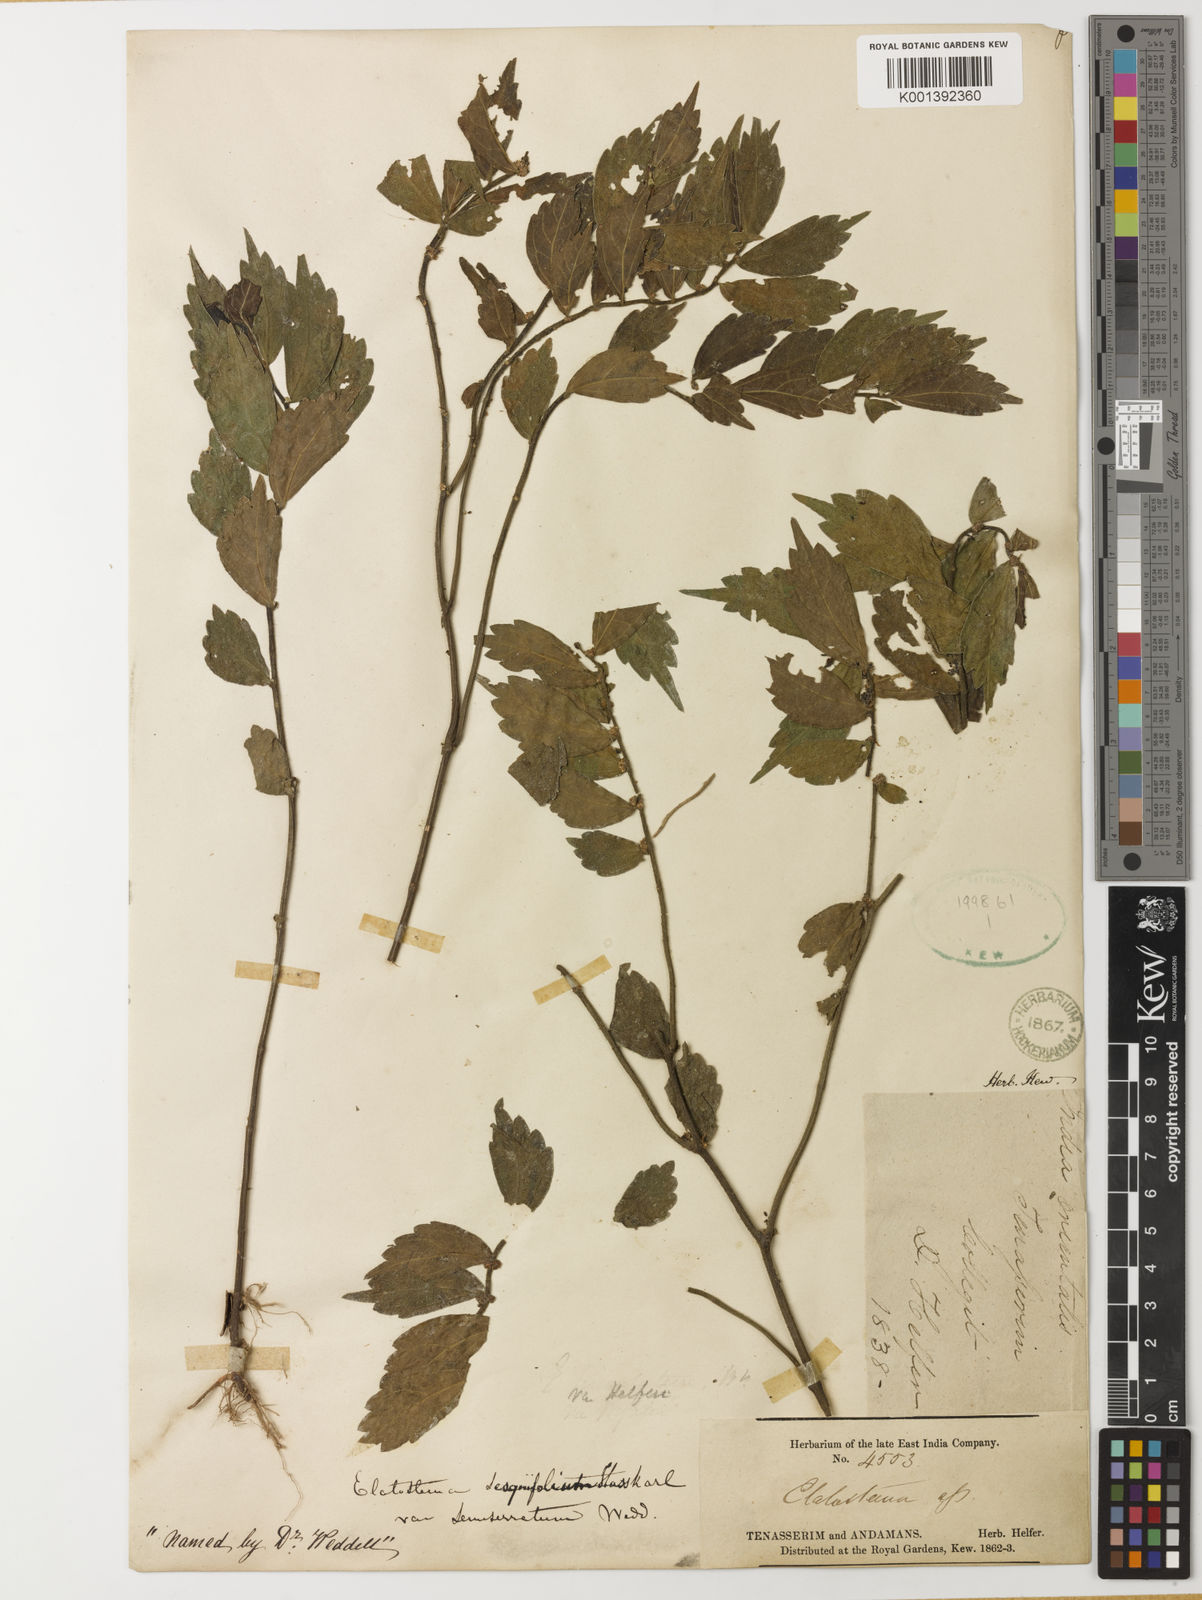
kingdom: Plantae
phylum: Tracheophyta
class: Magnoliopsida
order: Rosales
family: Urticaceae
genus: Elatostema
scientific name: Elatostema integrifolium
